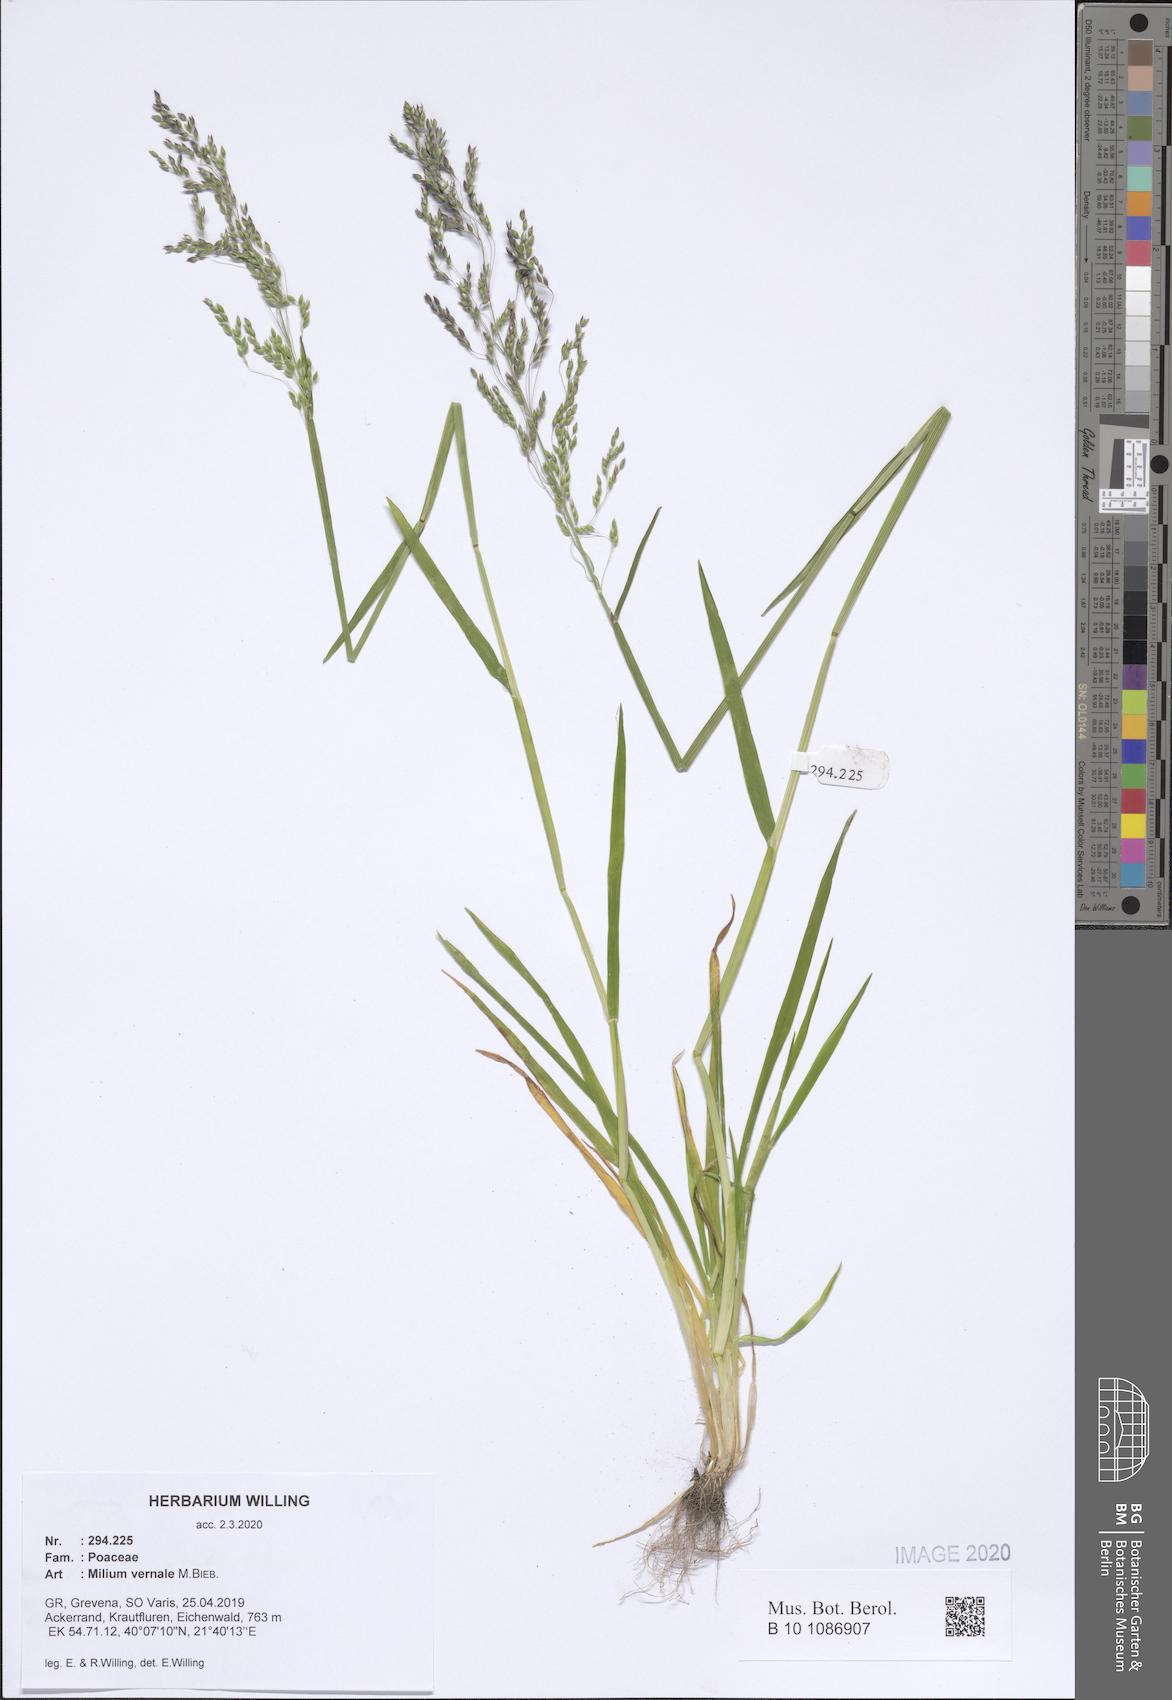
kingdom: Plantae
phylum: Tracheophyta
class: Liliopsida
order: Poales
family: Poaceae
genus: Milium
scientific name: Milium vernale
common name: Early millet
